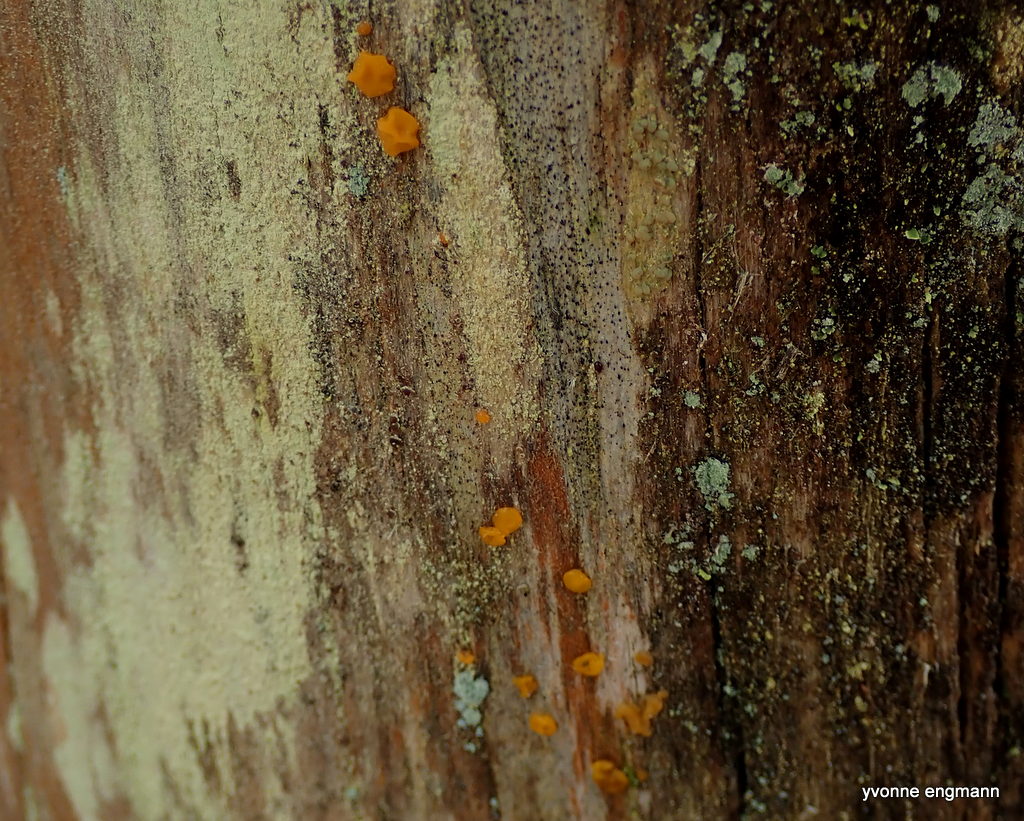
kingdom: Fungi
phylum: Basidiomycota
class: Dacrymycetes
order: Dacrymycetales
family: Dacrymycetaceae
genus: Dacrymyces
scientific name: Dacrymyces
